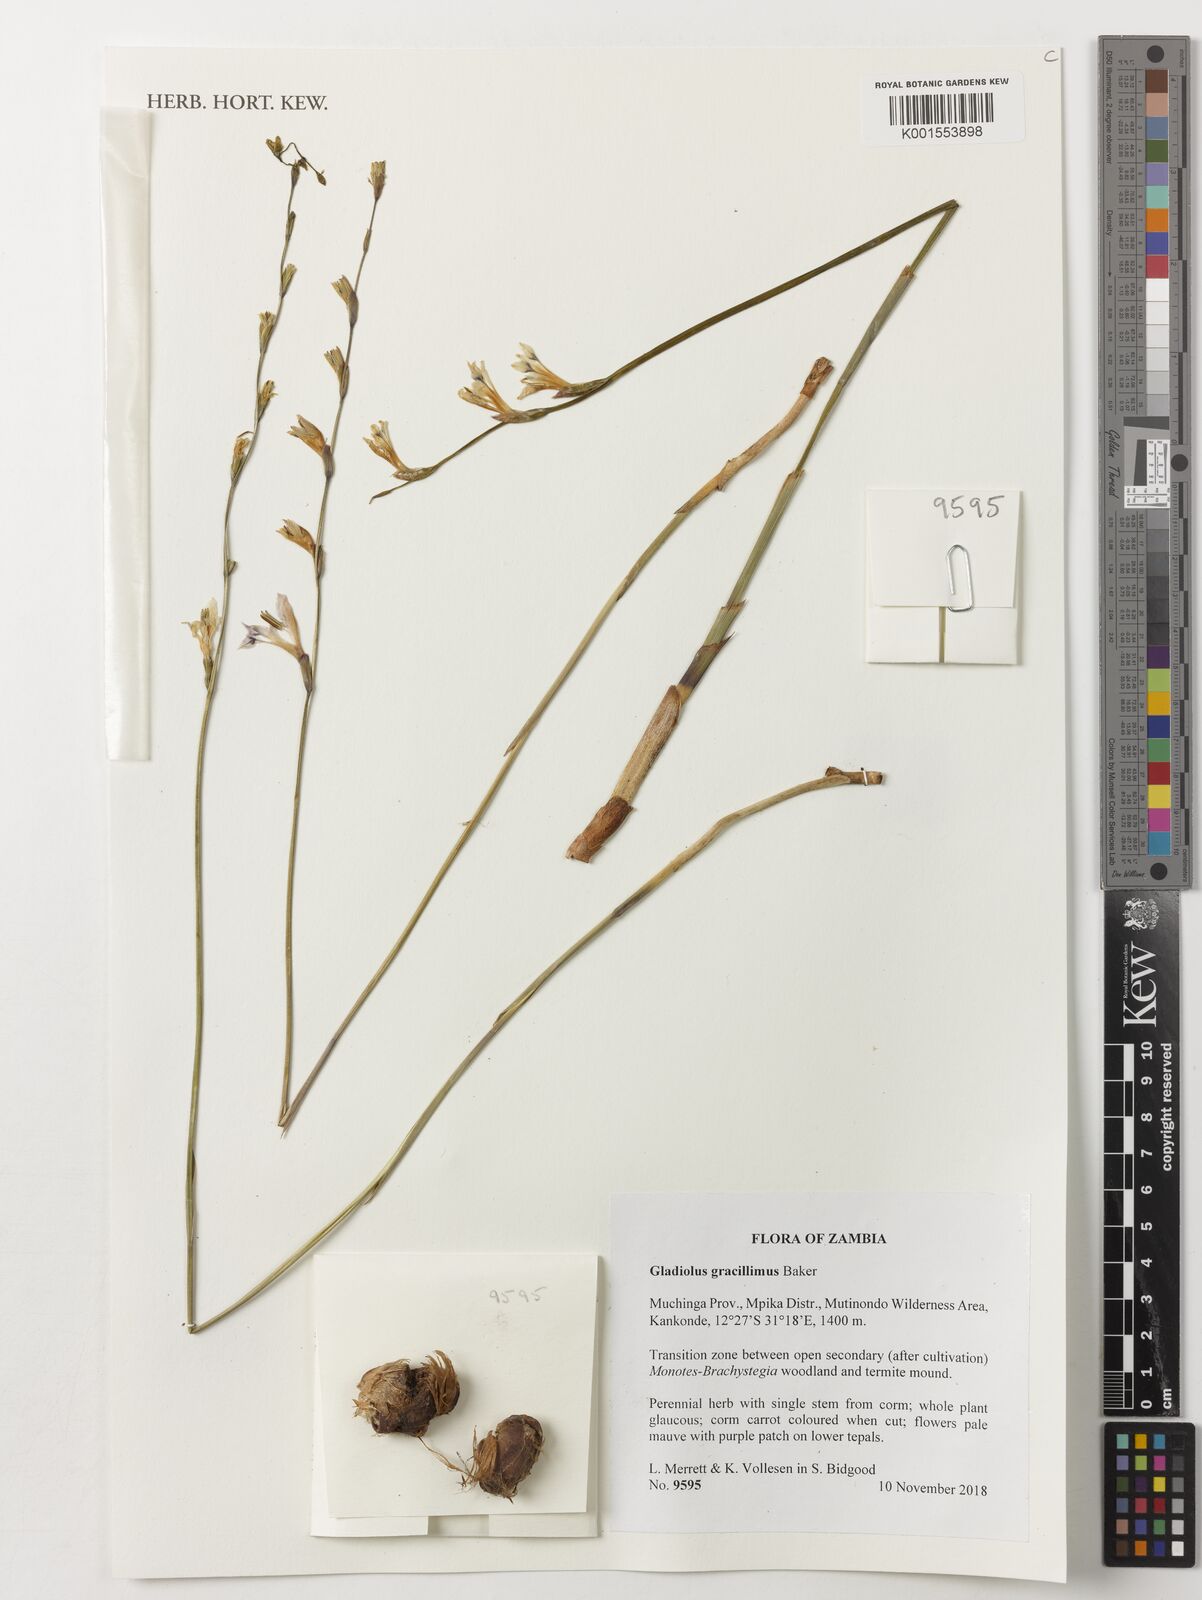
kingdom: Plantae
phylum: Tracheophyta
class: Liliopsida
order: Asparagales
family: Iridaceae
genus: Gladiolus
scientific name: Gladiolus gracillimus
